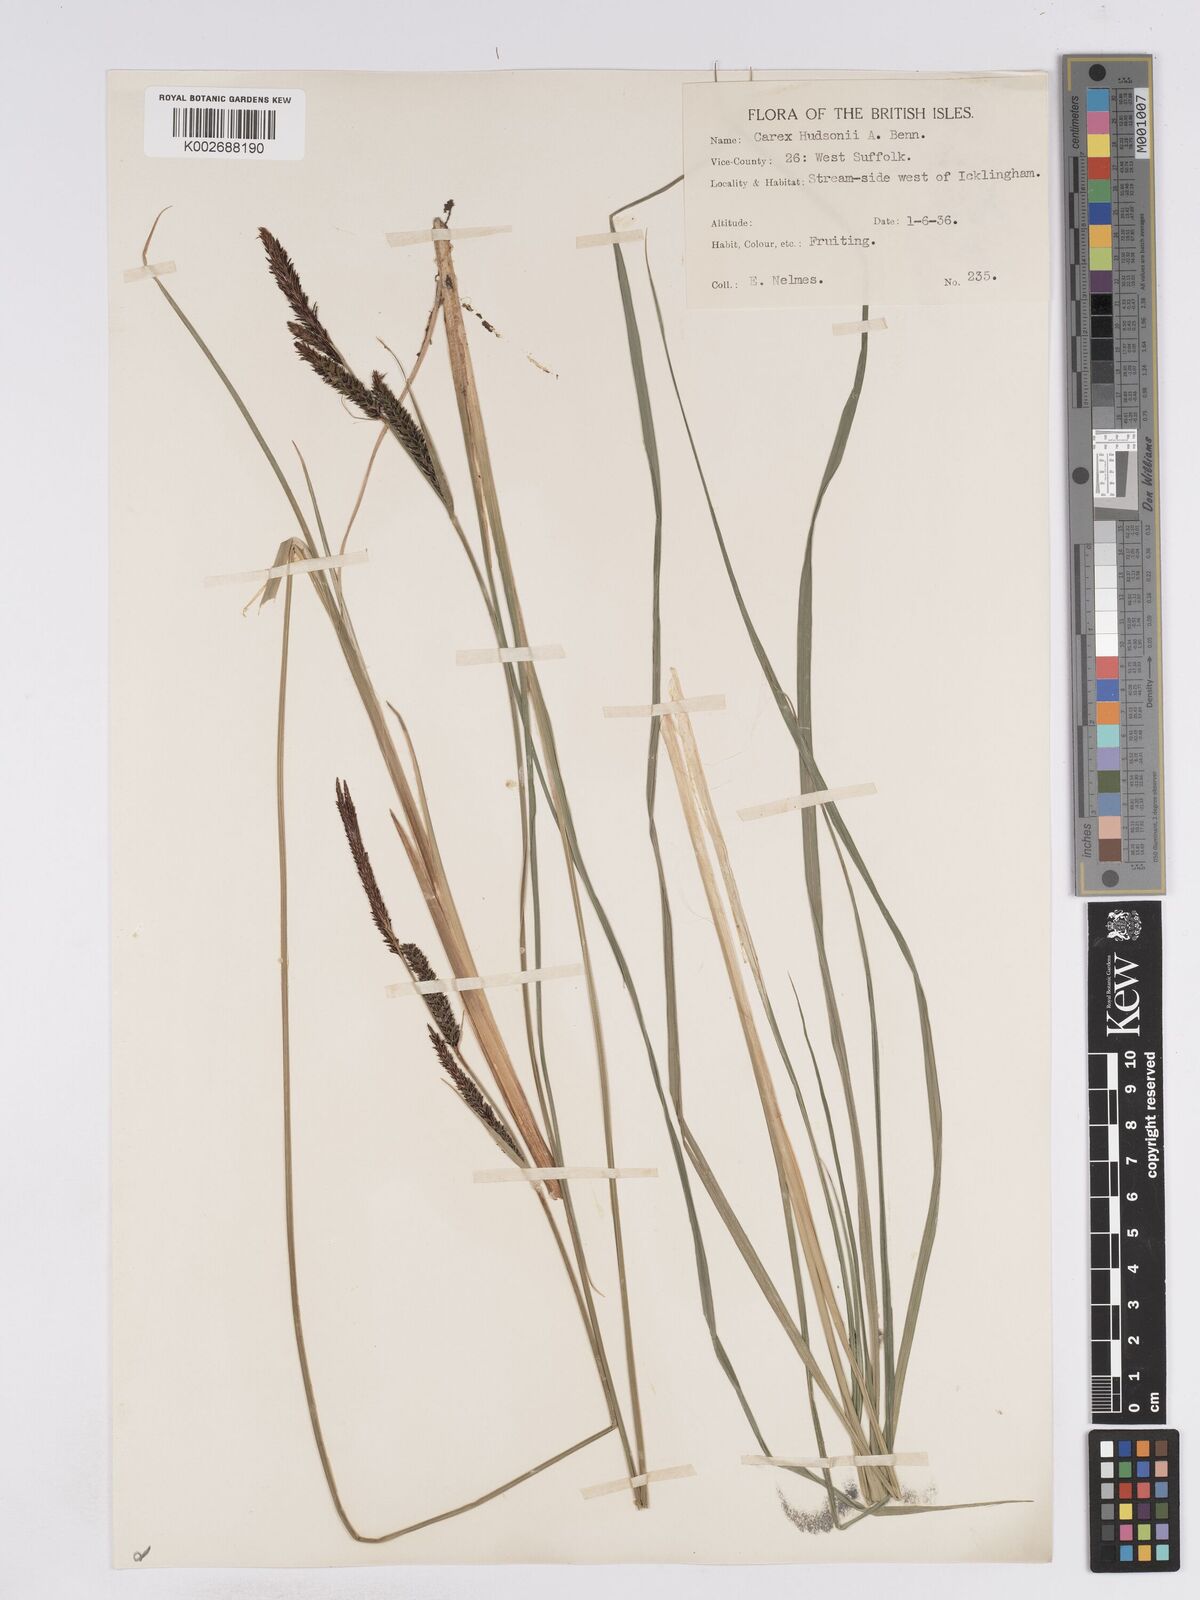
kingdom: Plantae
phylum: Tracheophyta
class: Liliopsida
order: Poales
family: Cyperaceae
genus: Carex
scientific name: Carex elata
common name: Tufted sedge
